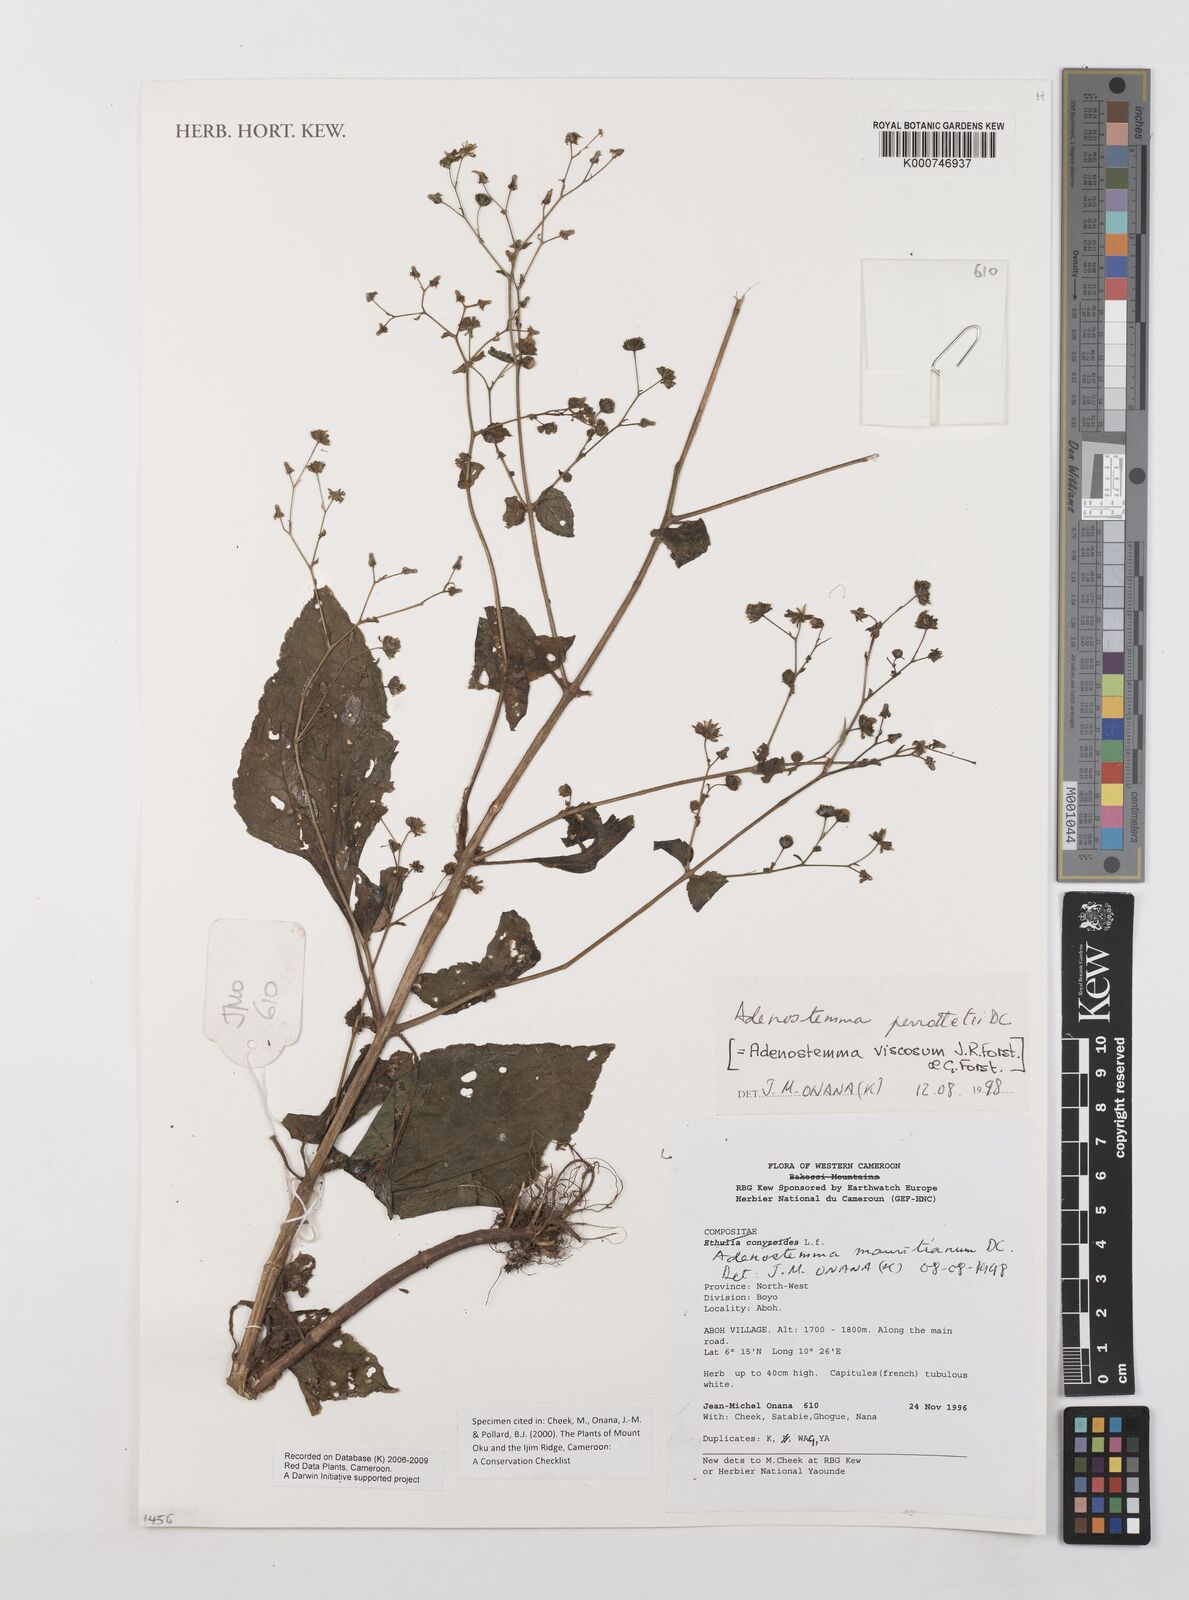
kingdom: Plantae
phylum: Tracheophyta
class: Magnoliopsida
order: Asterales
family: Asteraceae
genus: Adenostemma
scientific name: Adenostemma viscosum
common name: Dungweed
